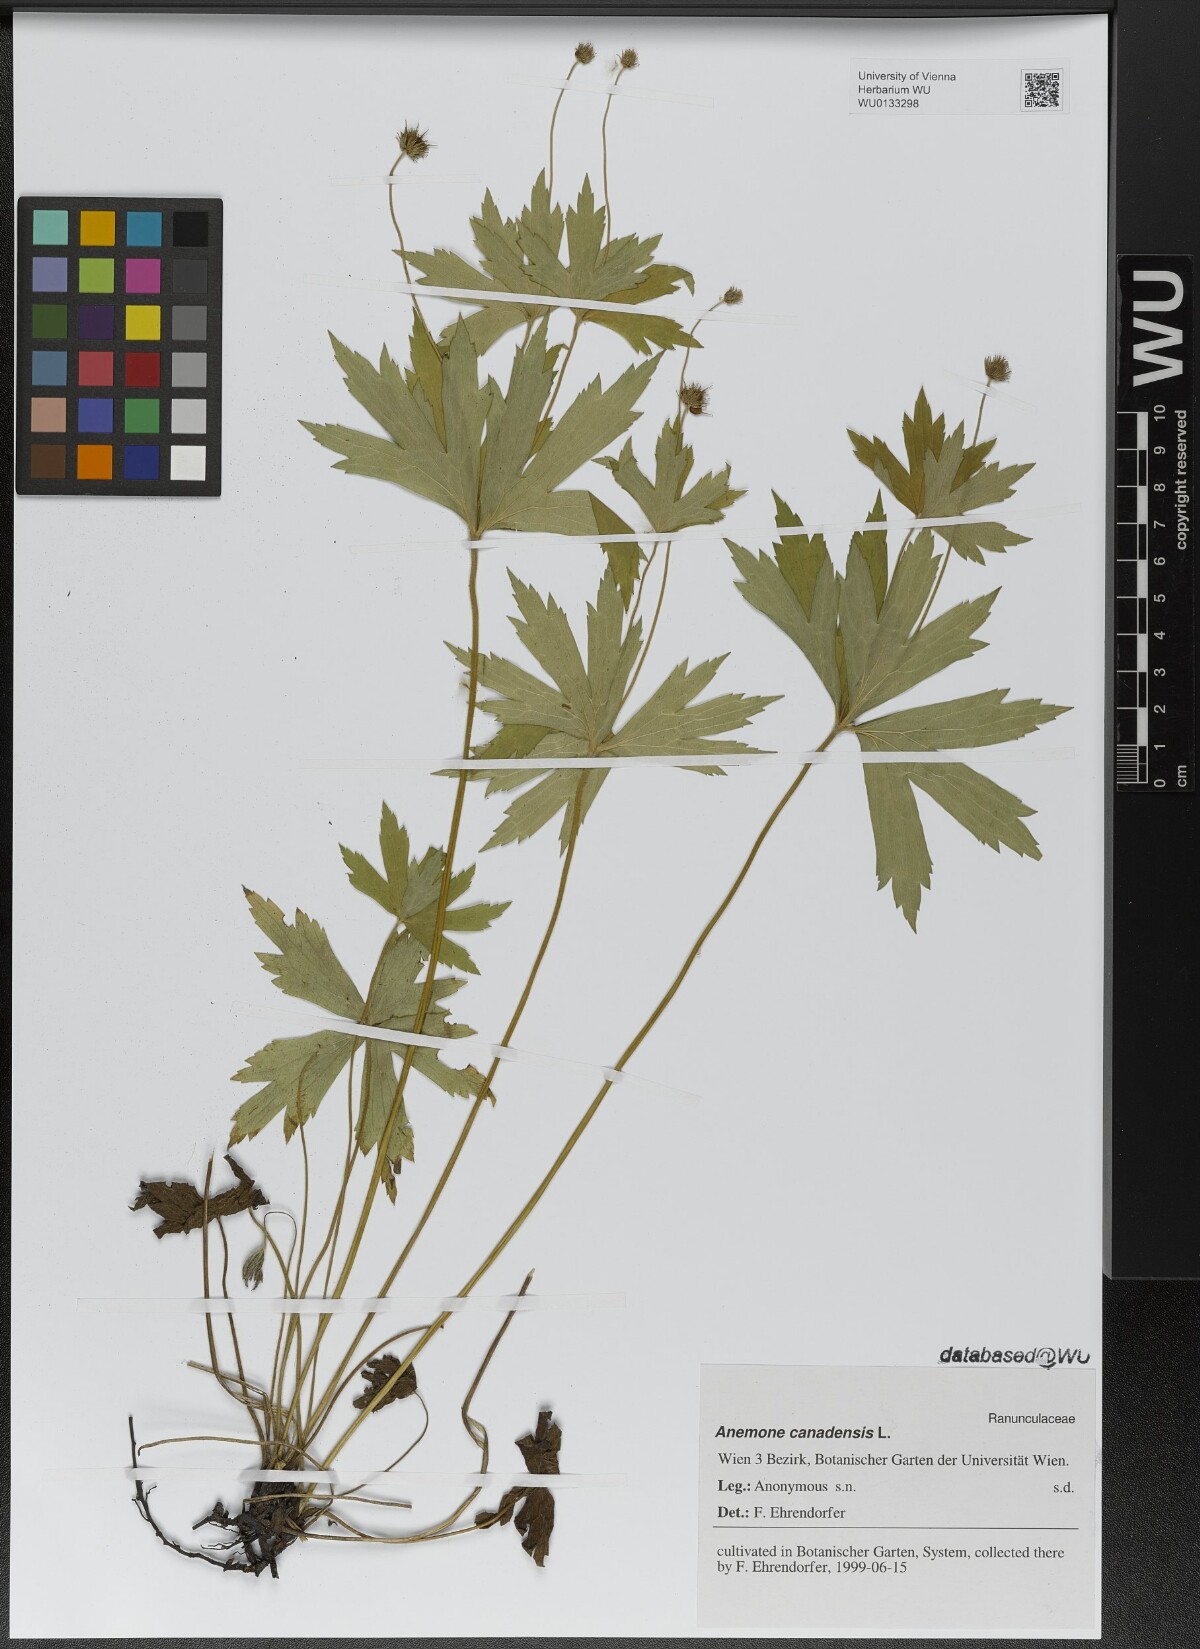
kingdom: Plantae
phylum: Tracheophyta
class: Magnoliopsida
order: Ranunculales
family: Ranunculaceae
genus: Anemonastrum
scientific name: Anemonastrum canadense
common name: Canada anemone
